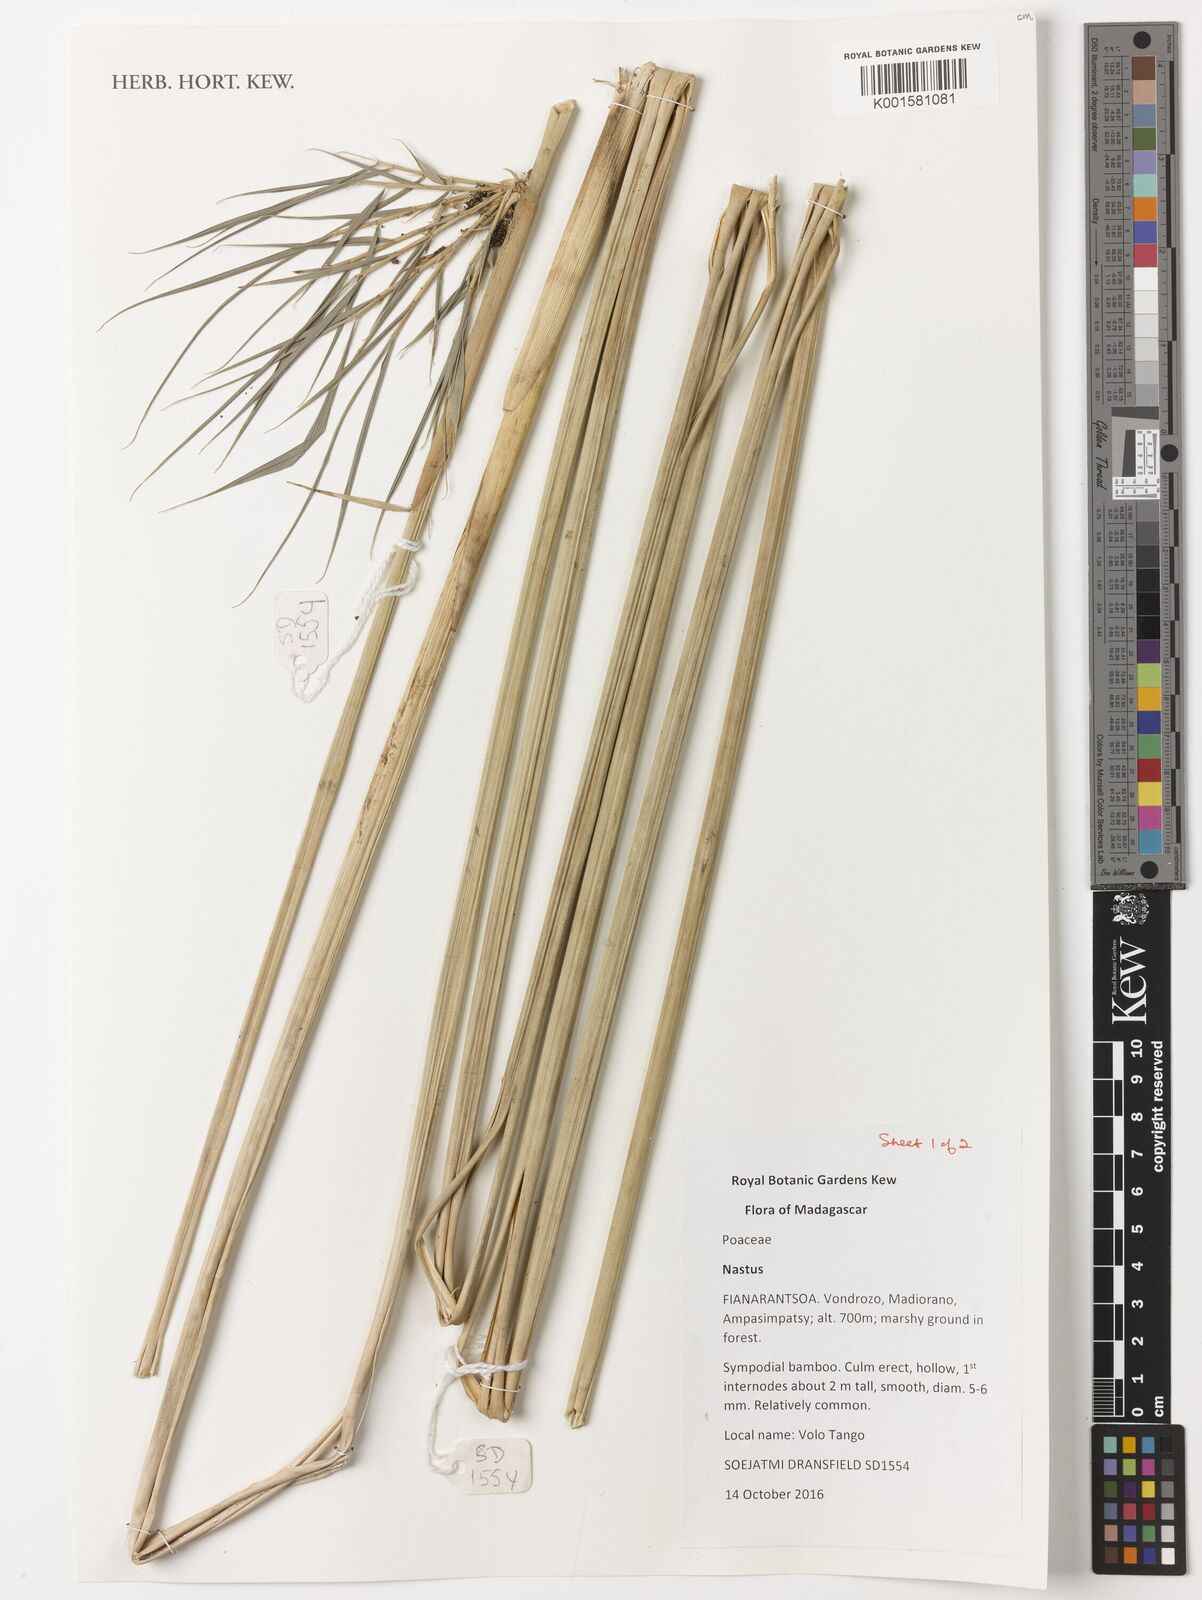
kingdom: Plantae
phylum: Tracheophyta
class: Liliopsida
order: Poales
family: Poaceae
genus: Nastus
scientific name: Nastus
